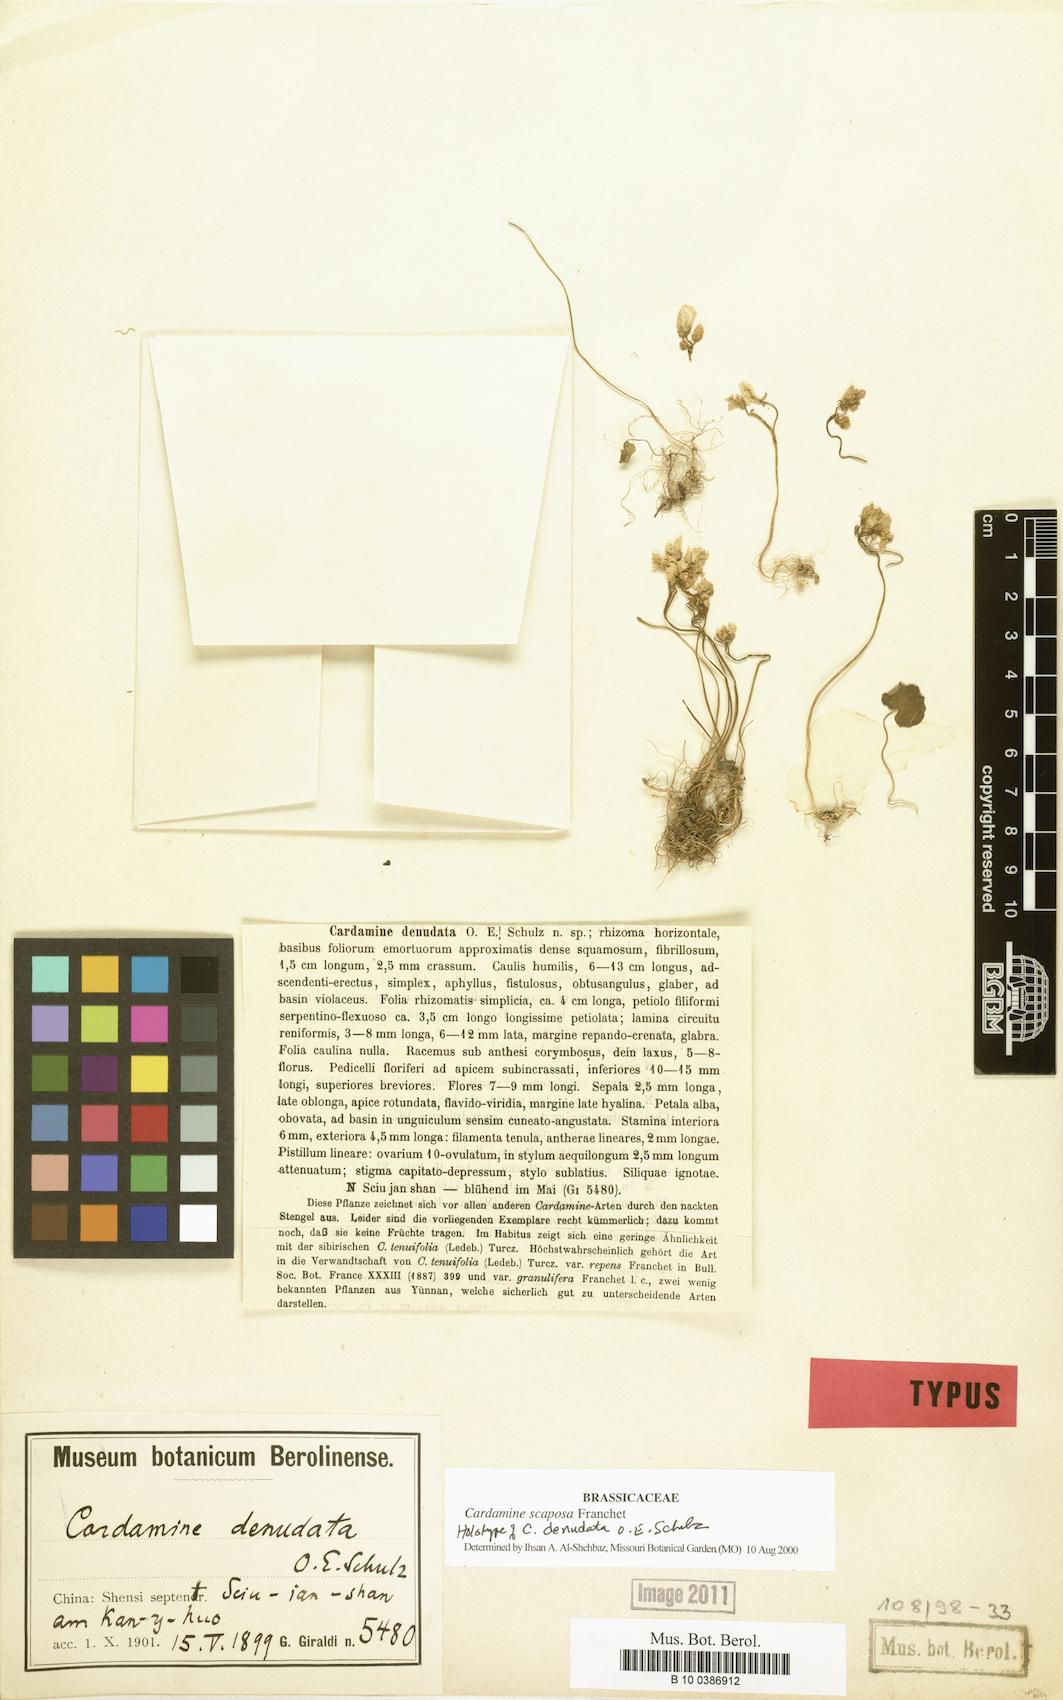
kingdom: Plantae
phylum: Tracheophyta
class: Magnoliopsida
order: Brassicales
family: Brassicaceae
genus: Cardamine
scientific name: Cardamine scaposa
